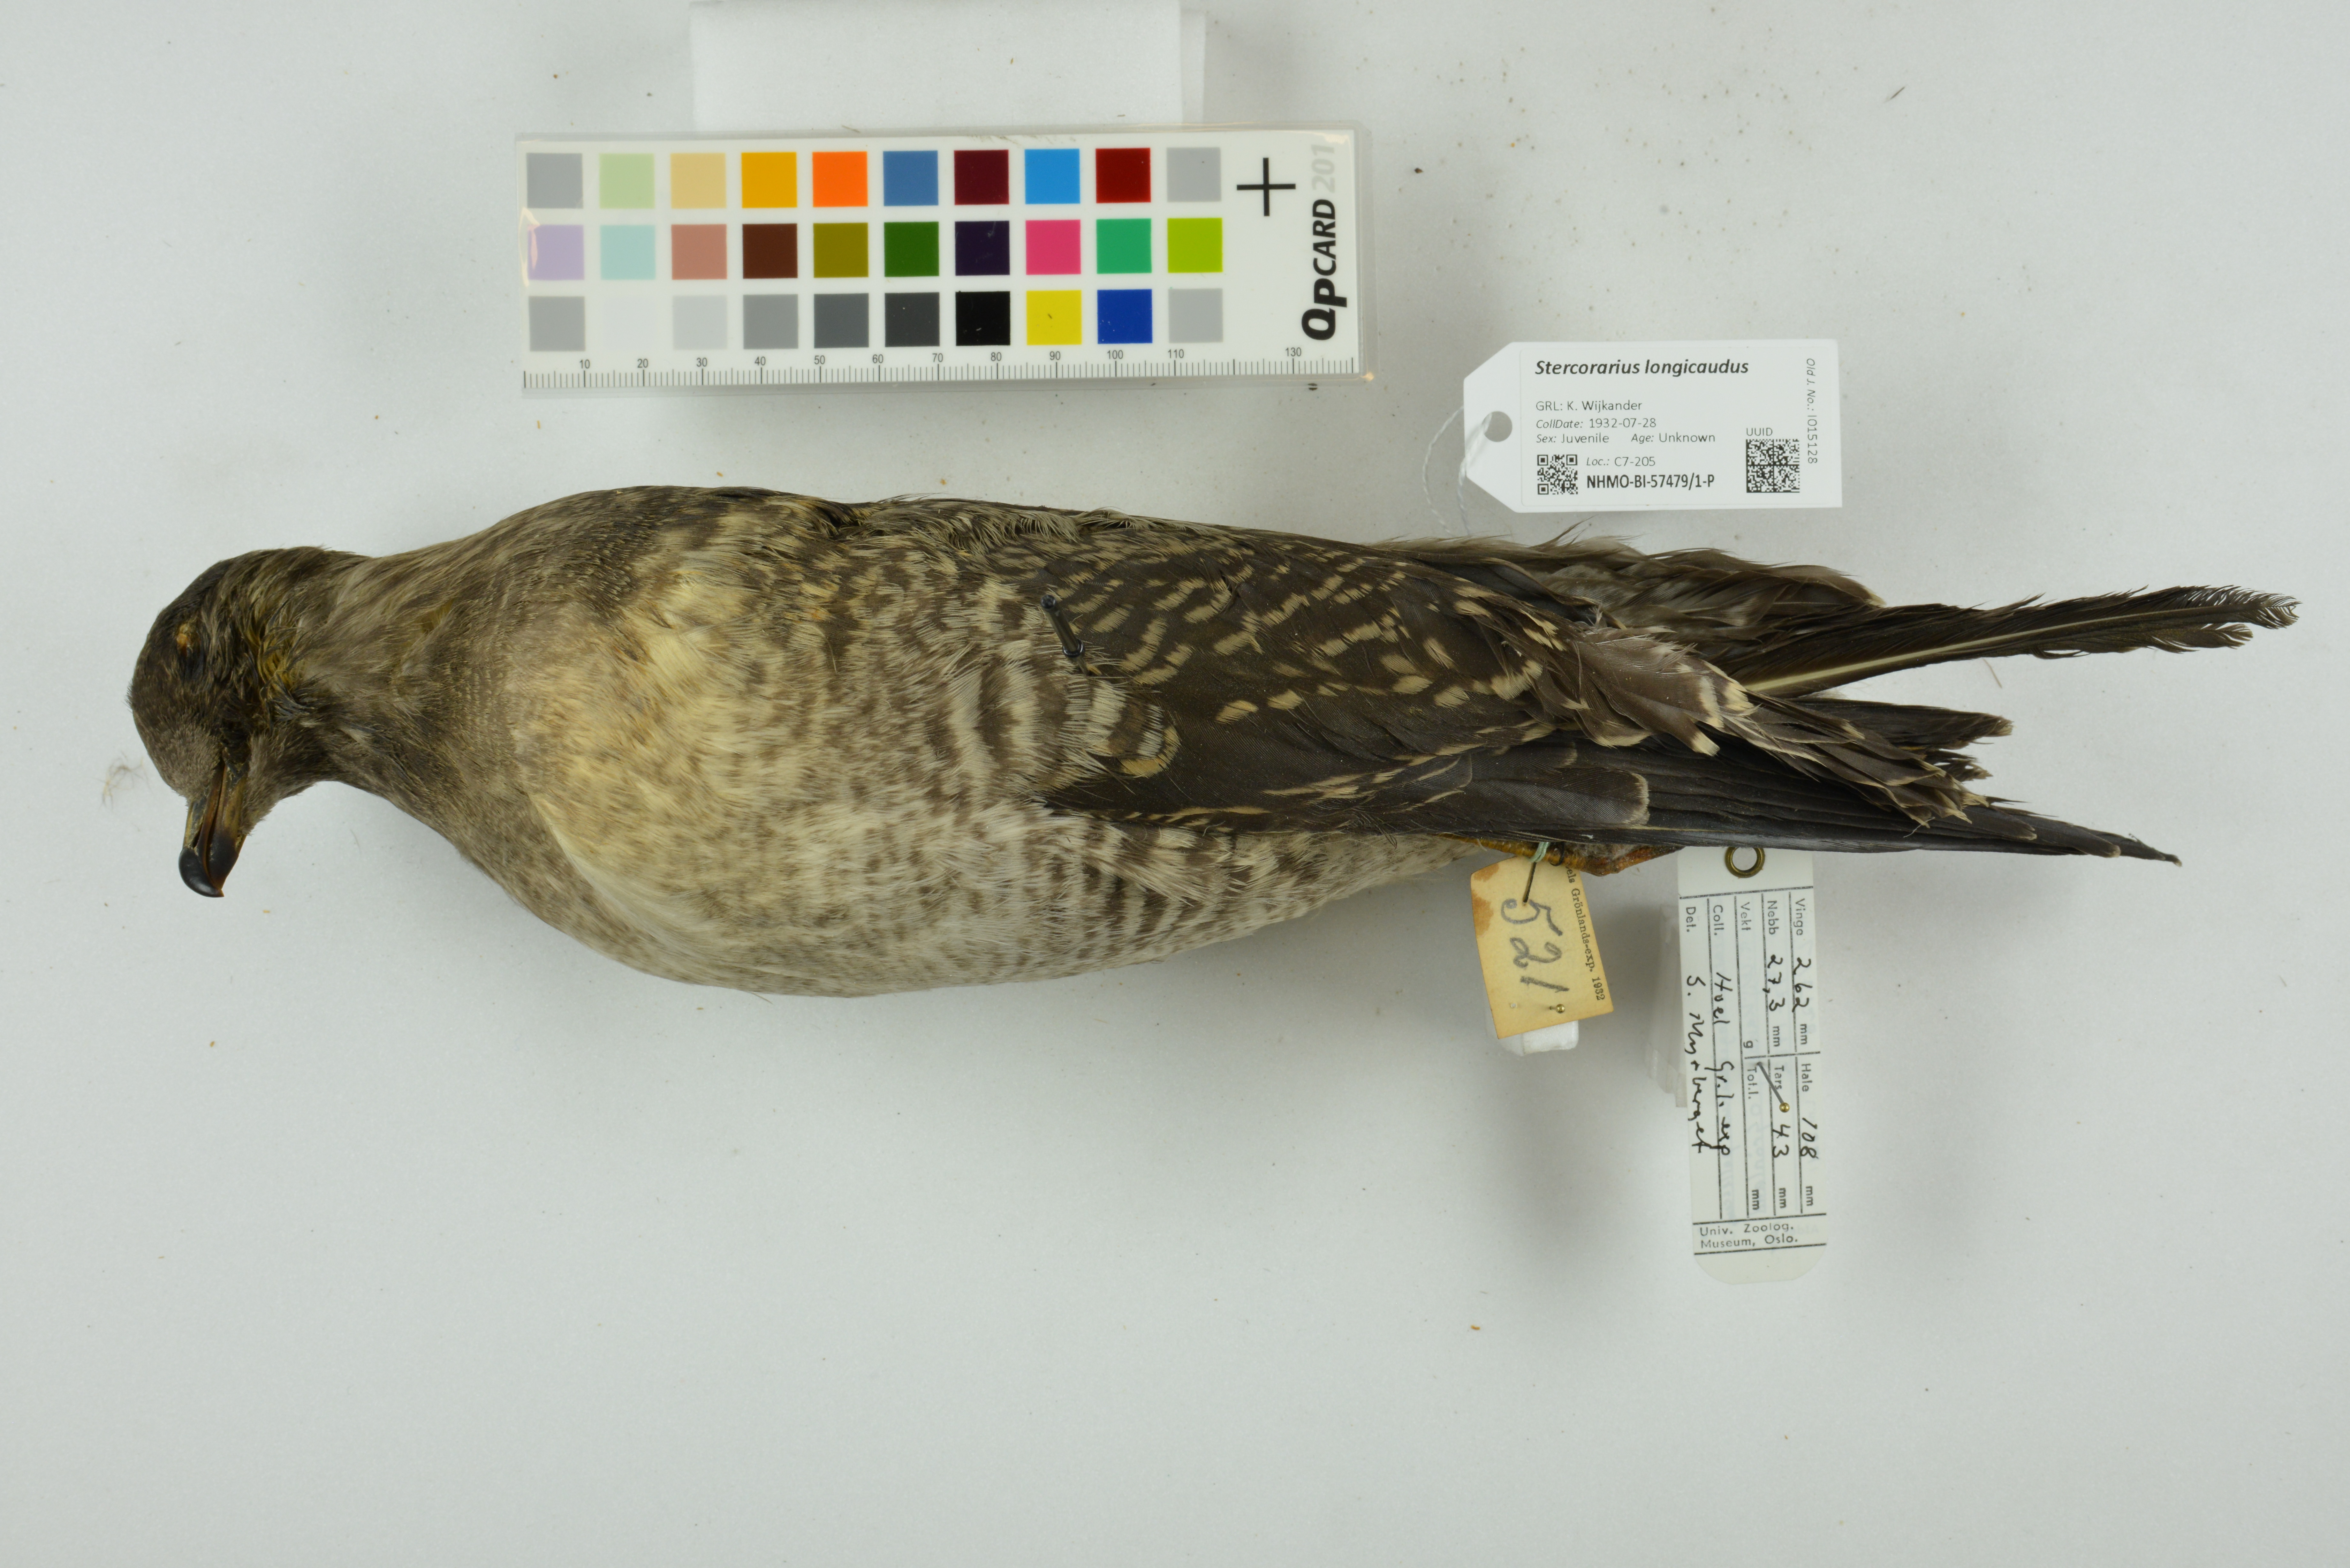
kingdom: Animalia
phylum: Chordata
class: Aves
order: Charadriiformes
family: Stercorariidae
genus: Stercorarius
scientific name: Stercorarius longicaudus
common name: Long-tailed jaeger
